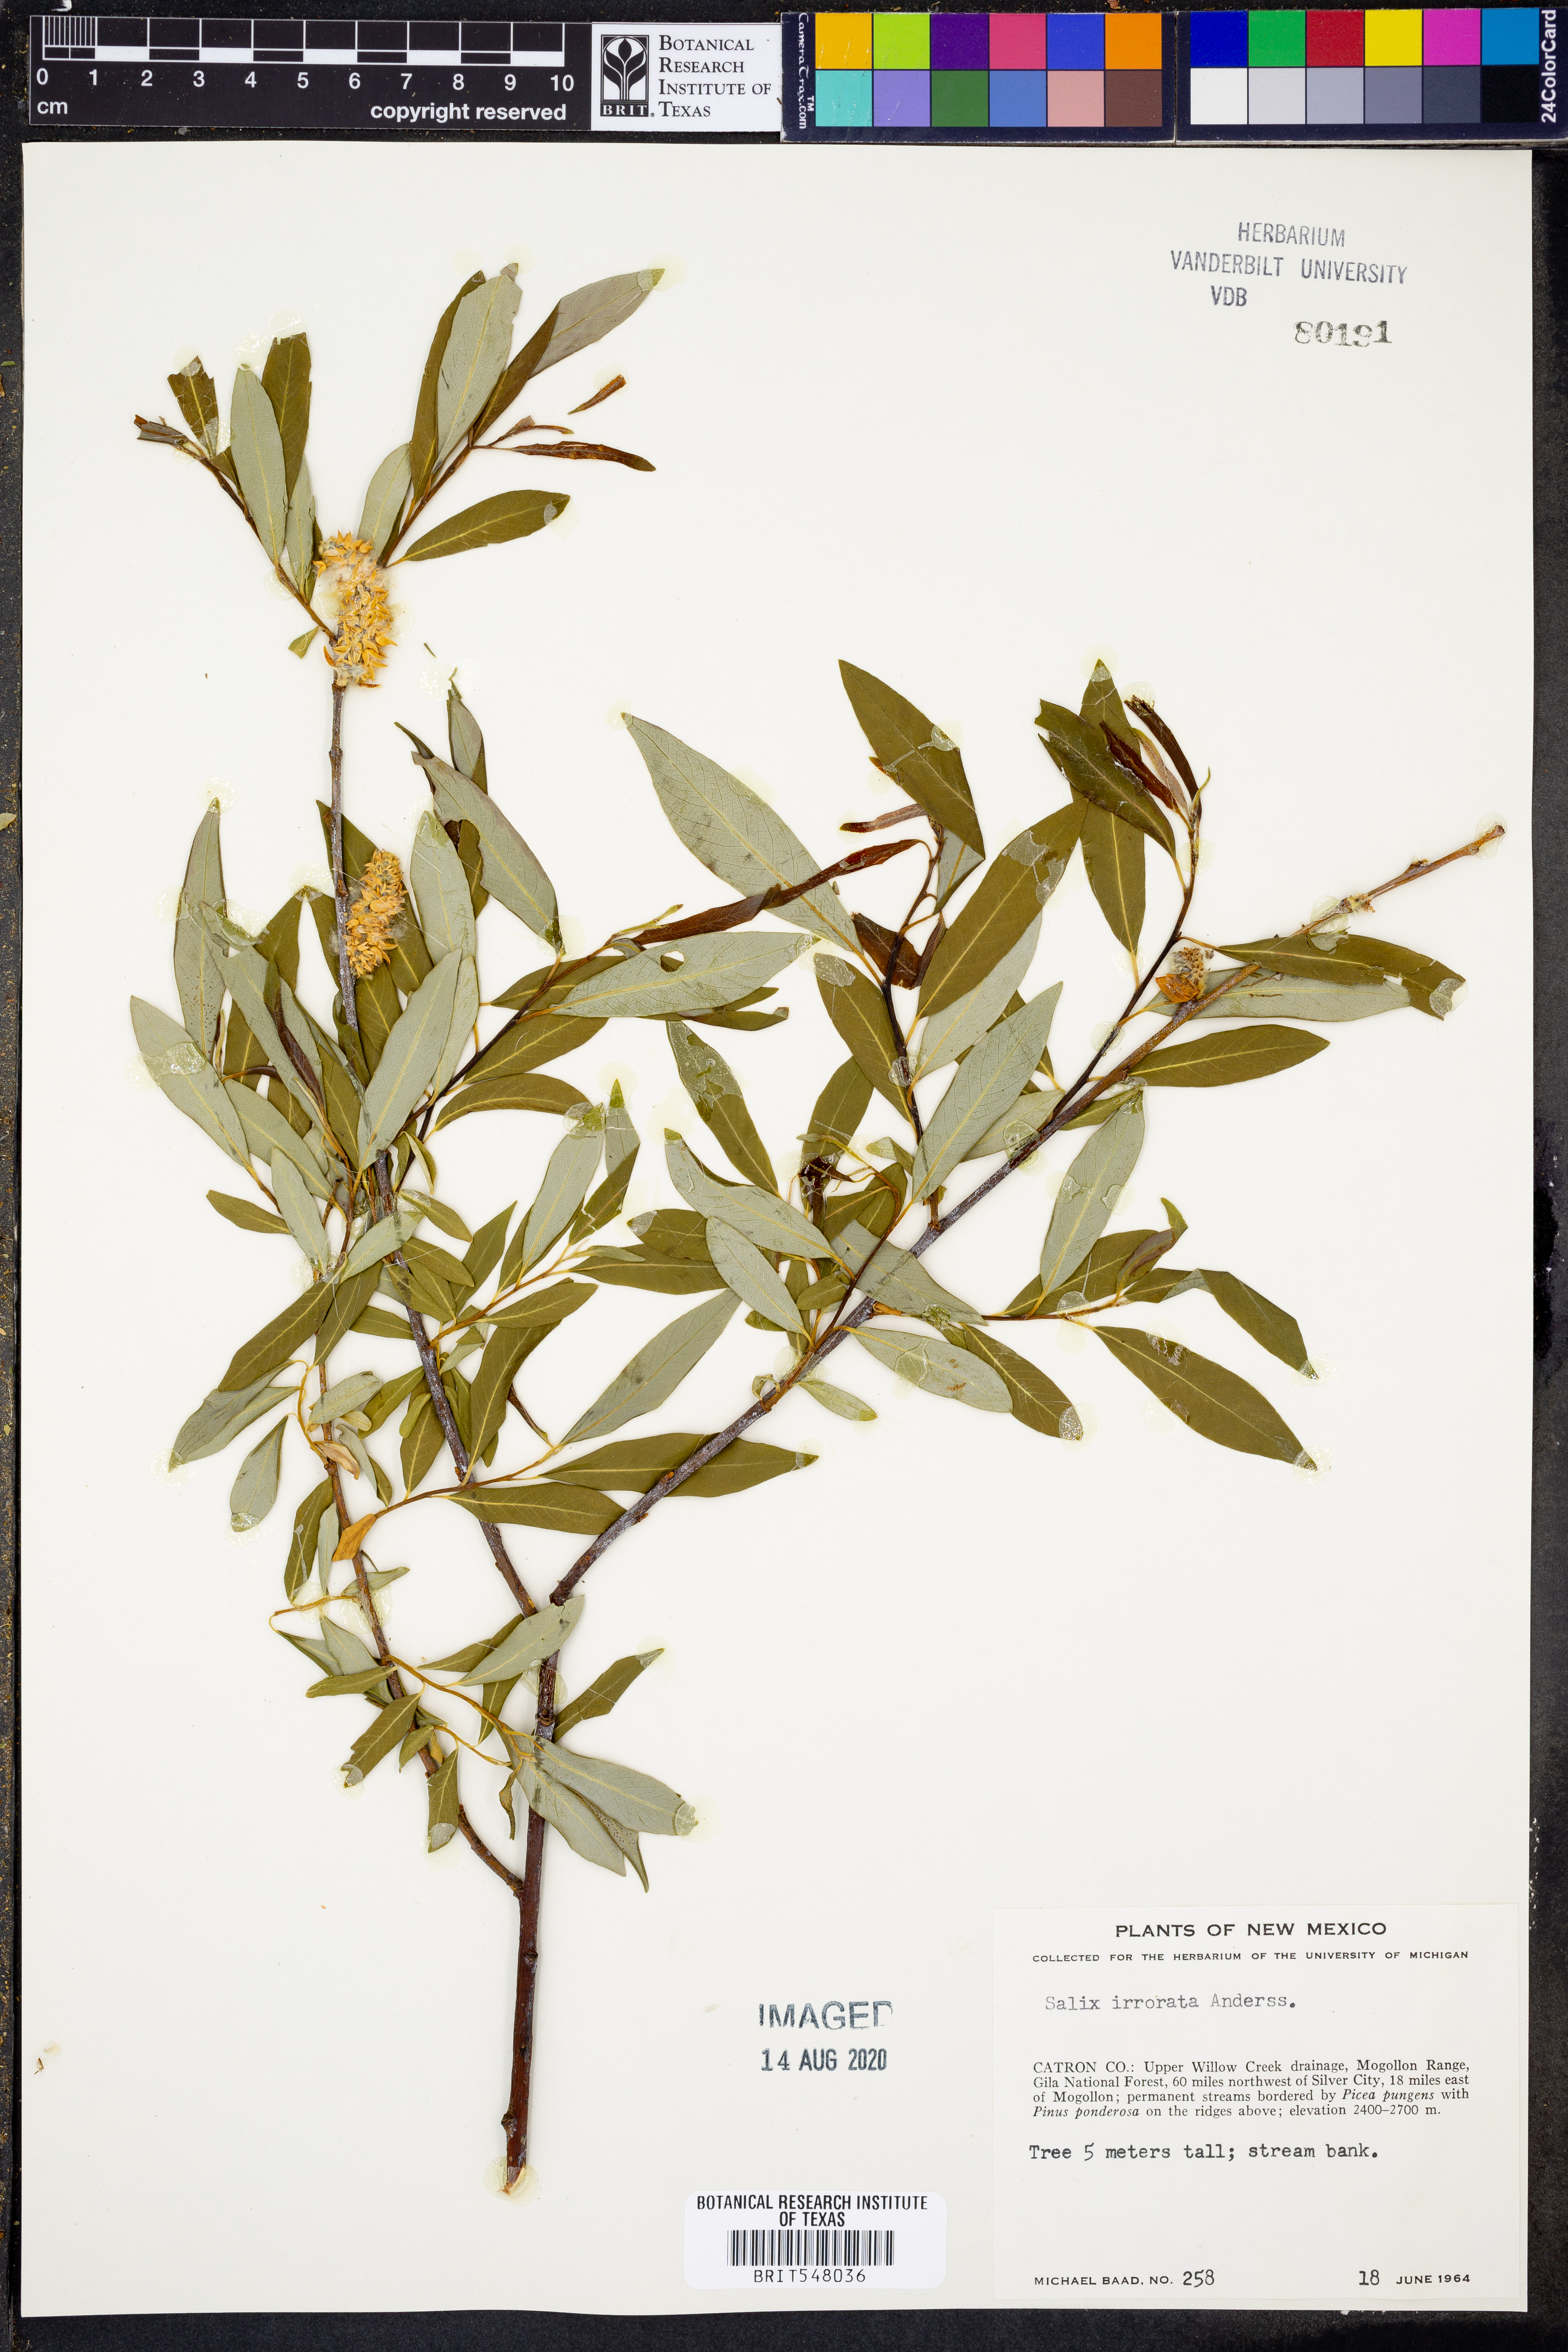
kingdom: Plantae
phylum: Tracheophyta
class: Magnoliopsida
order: Malpighiales
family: Salicaceae
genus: Salix
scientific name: Salix irrorata
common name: Blue-stem willow
